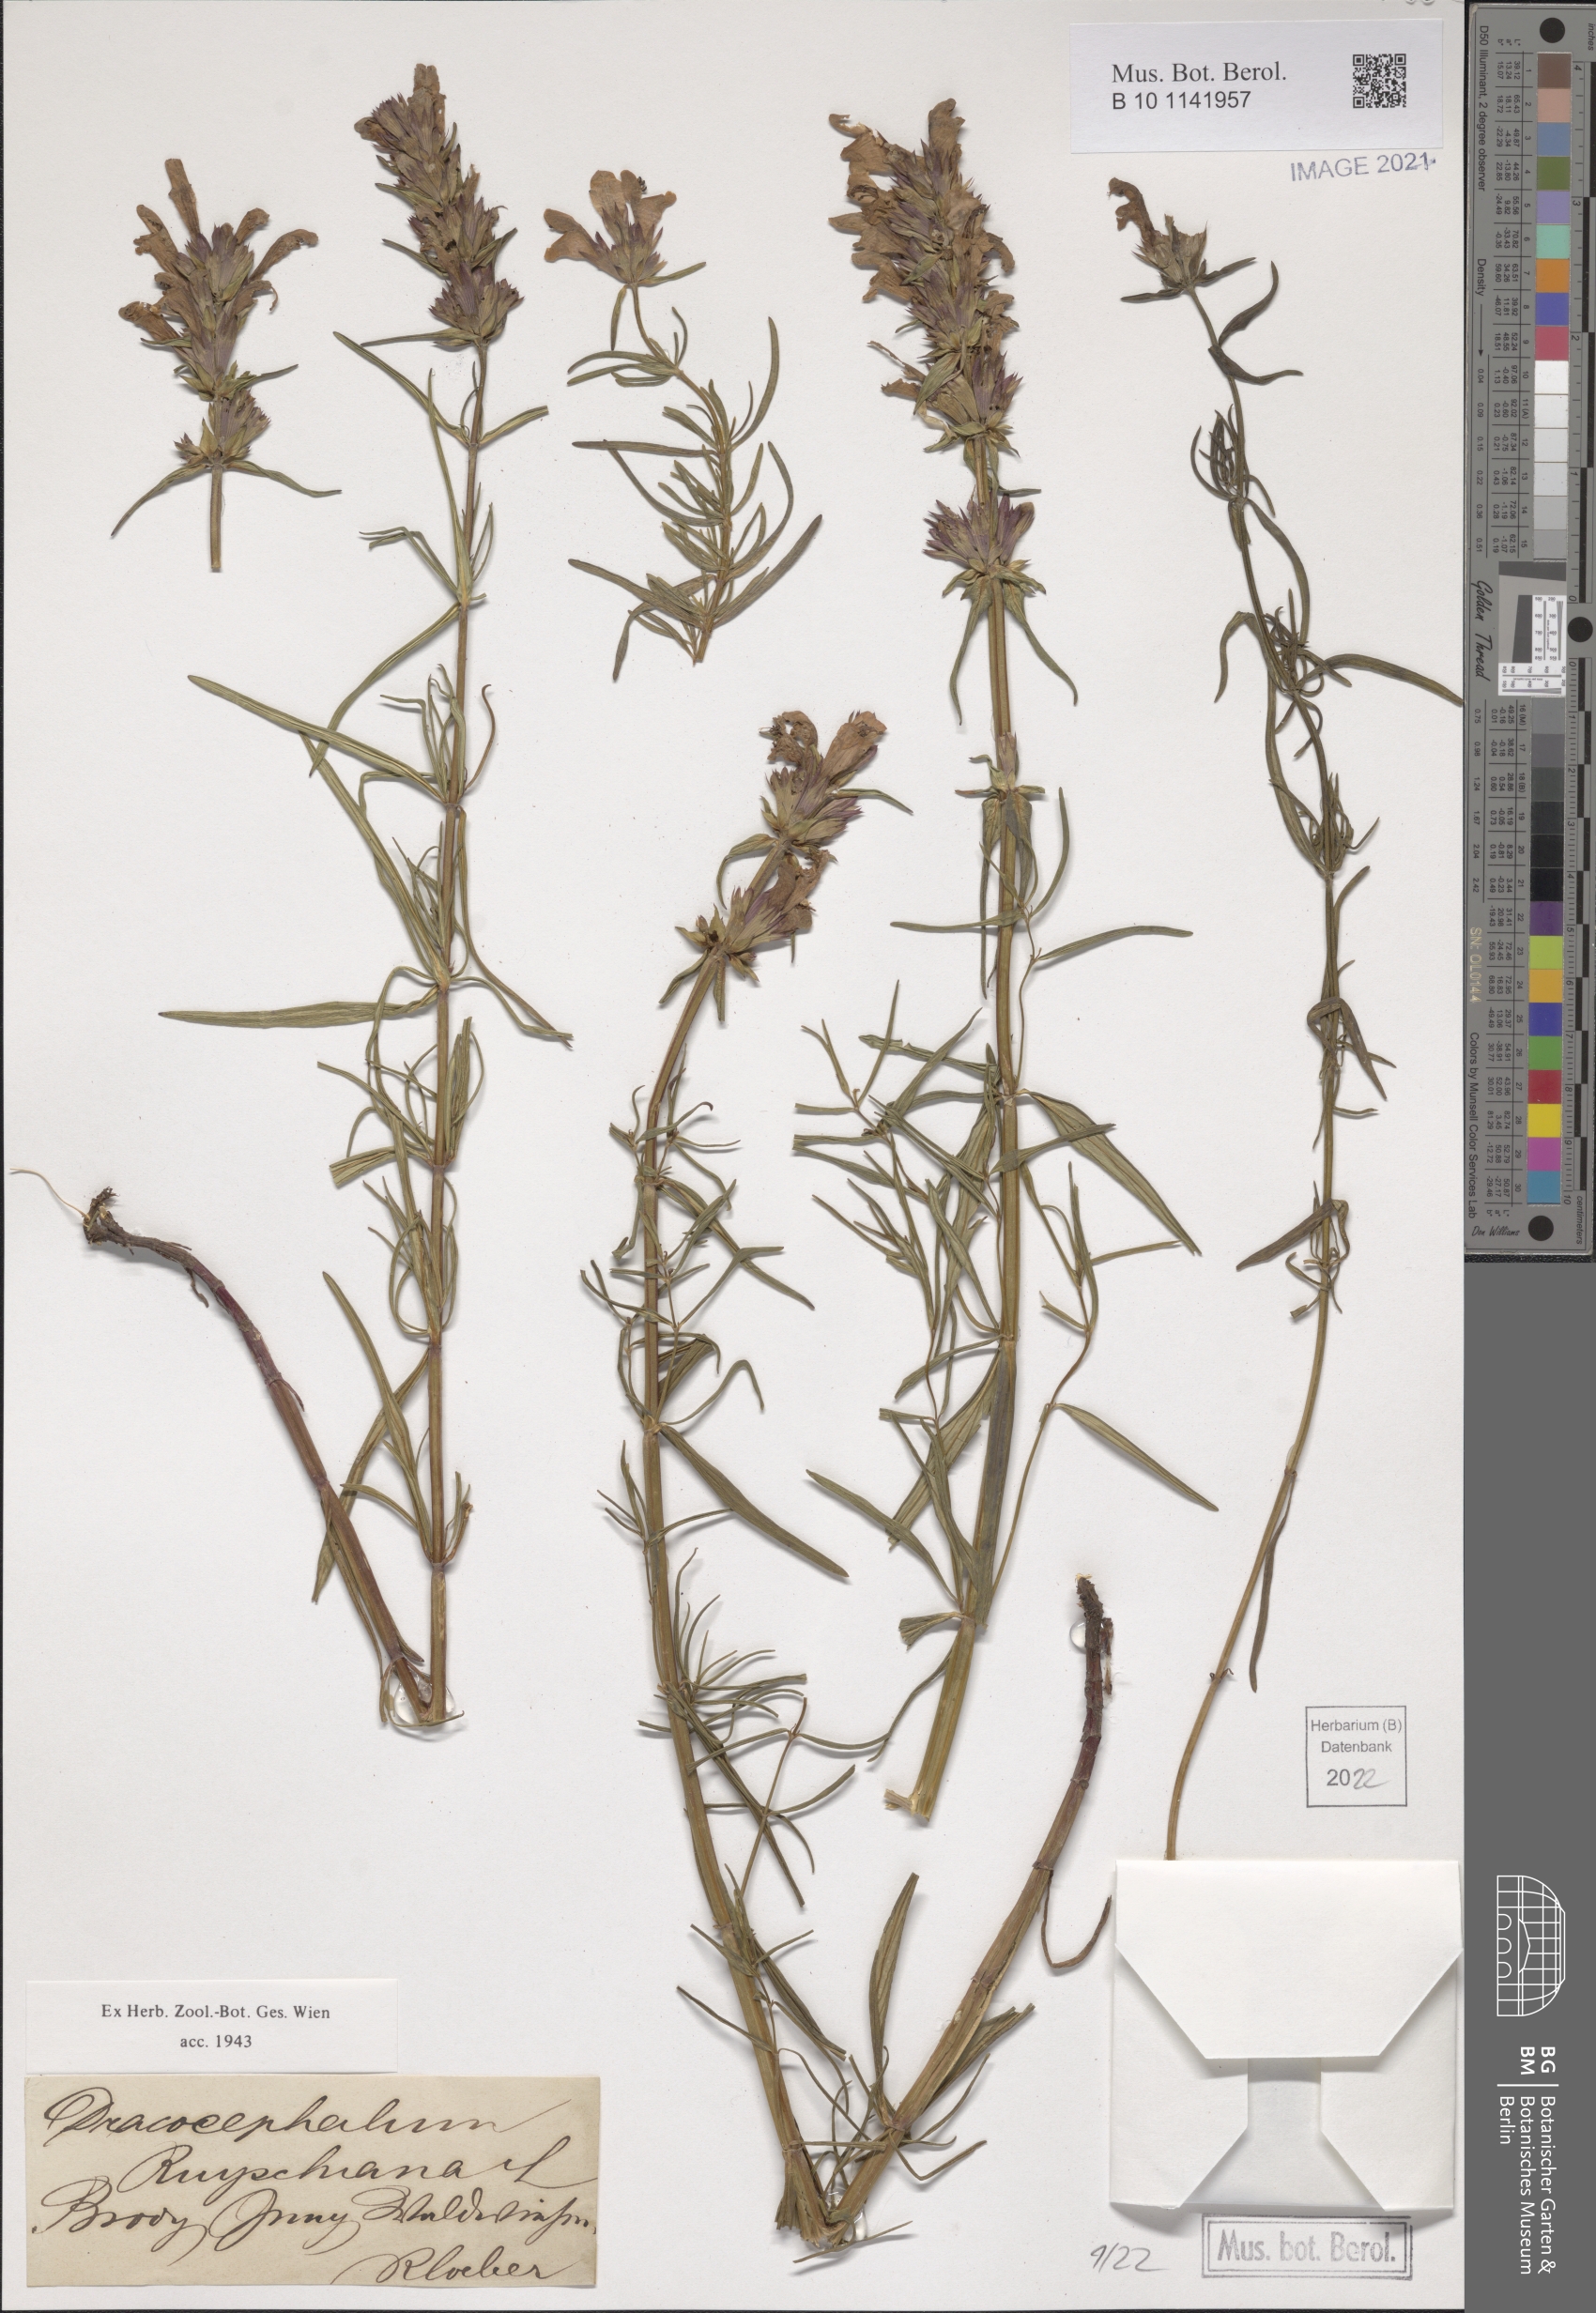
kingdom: Plantae
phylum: Tracheophyta
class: Magnoliopsida
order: Lamiales
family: Lamiaceae
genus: Dracocephalum
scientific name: Dracocephalum ruyschiana
